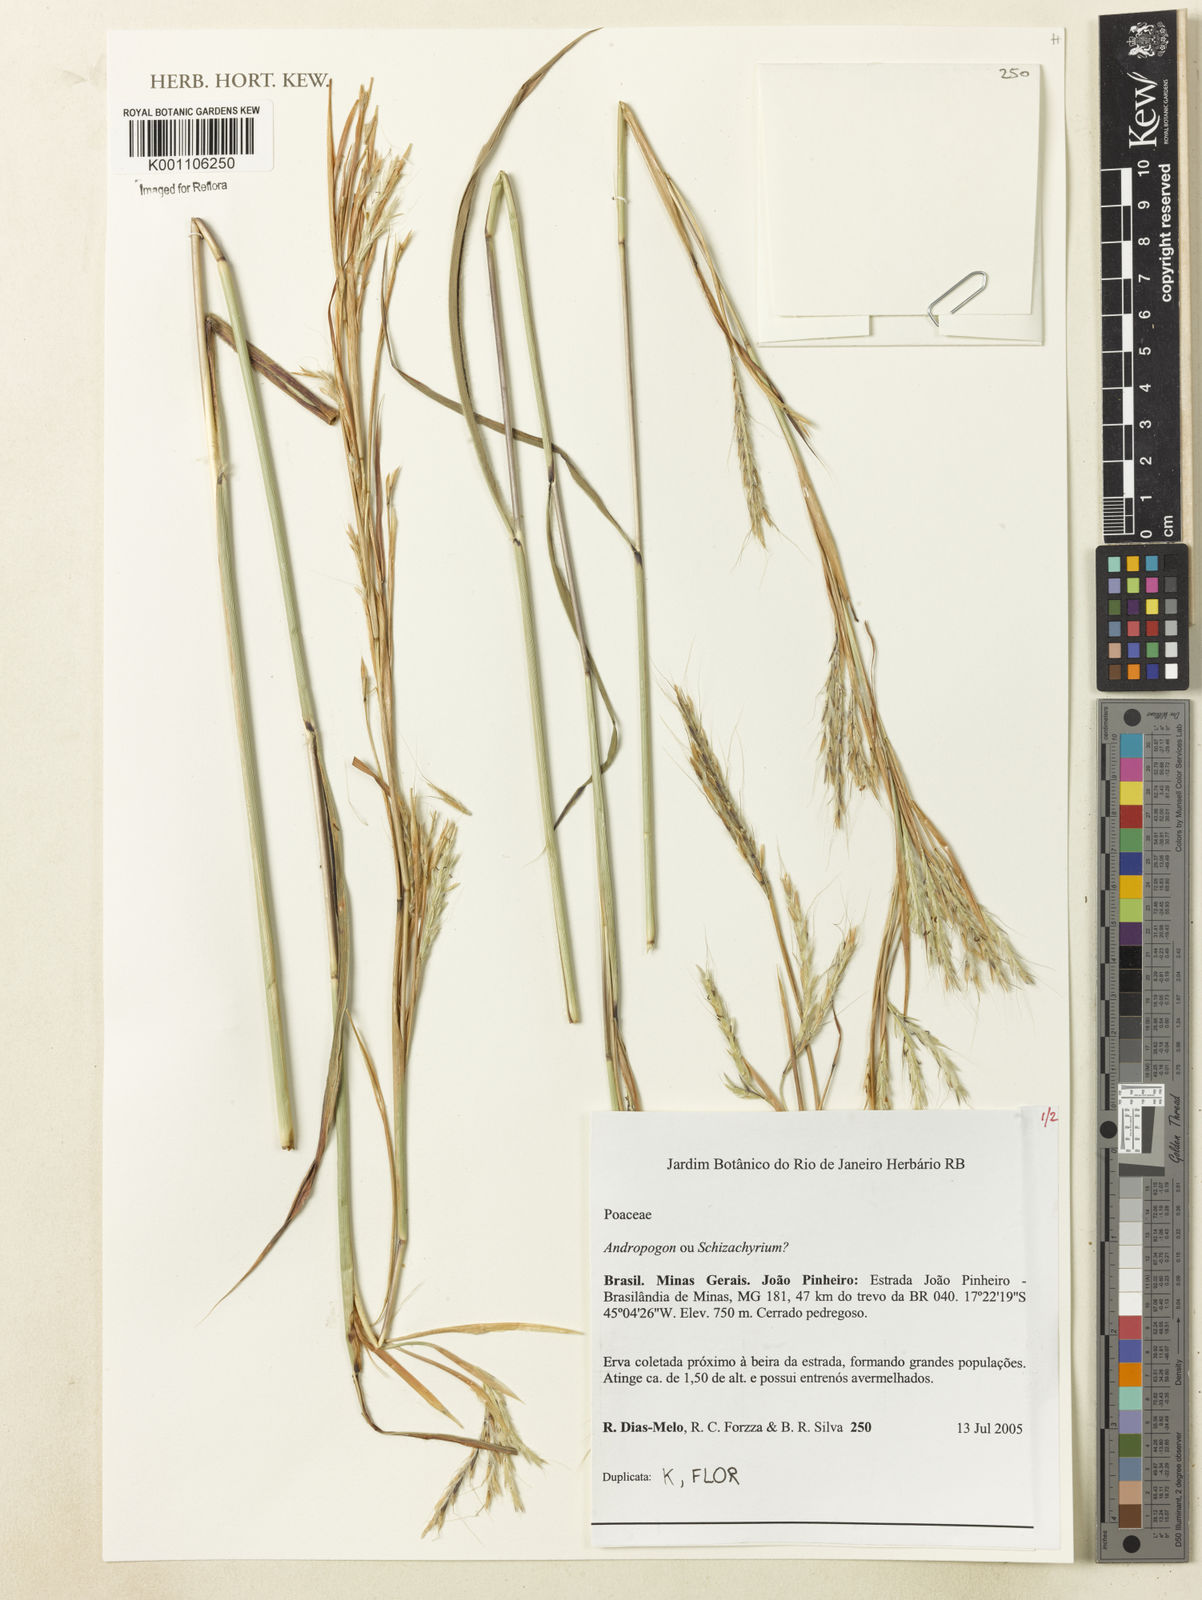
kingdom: Plantae
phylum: Tracheophyta
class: Liliopsida
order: Poales
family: Poaceae
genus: Andropogon
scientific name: Andropogon
